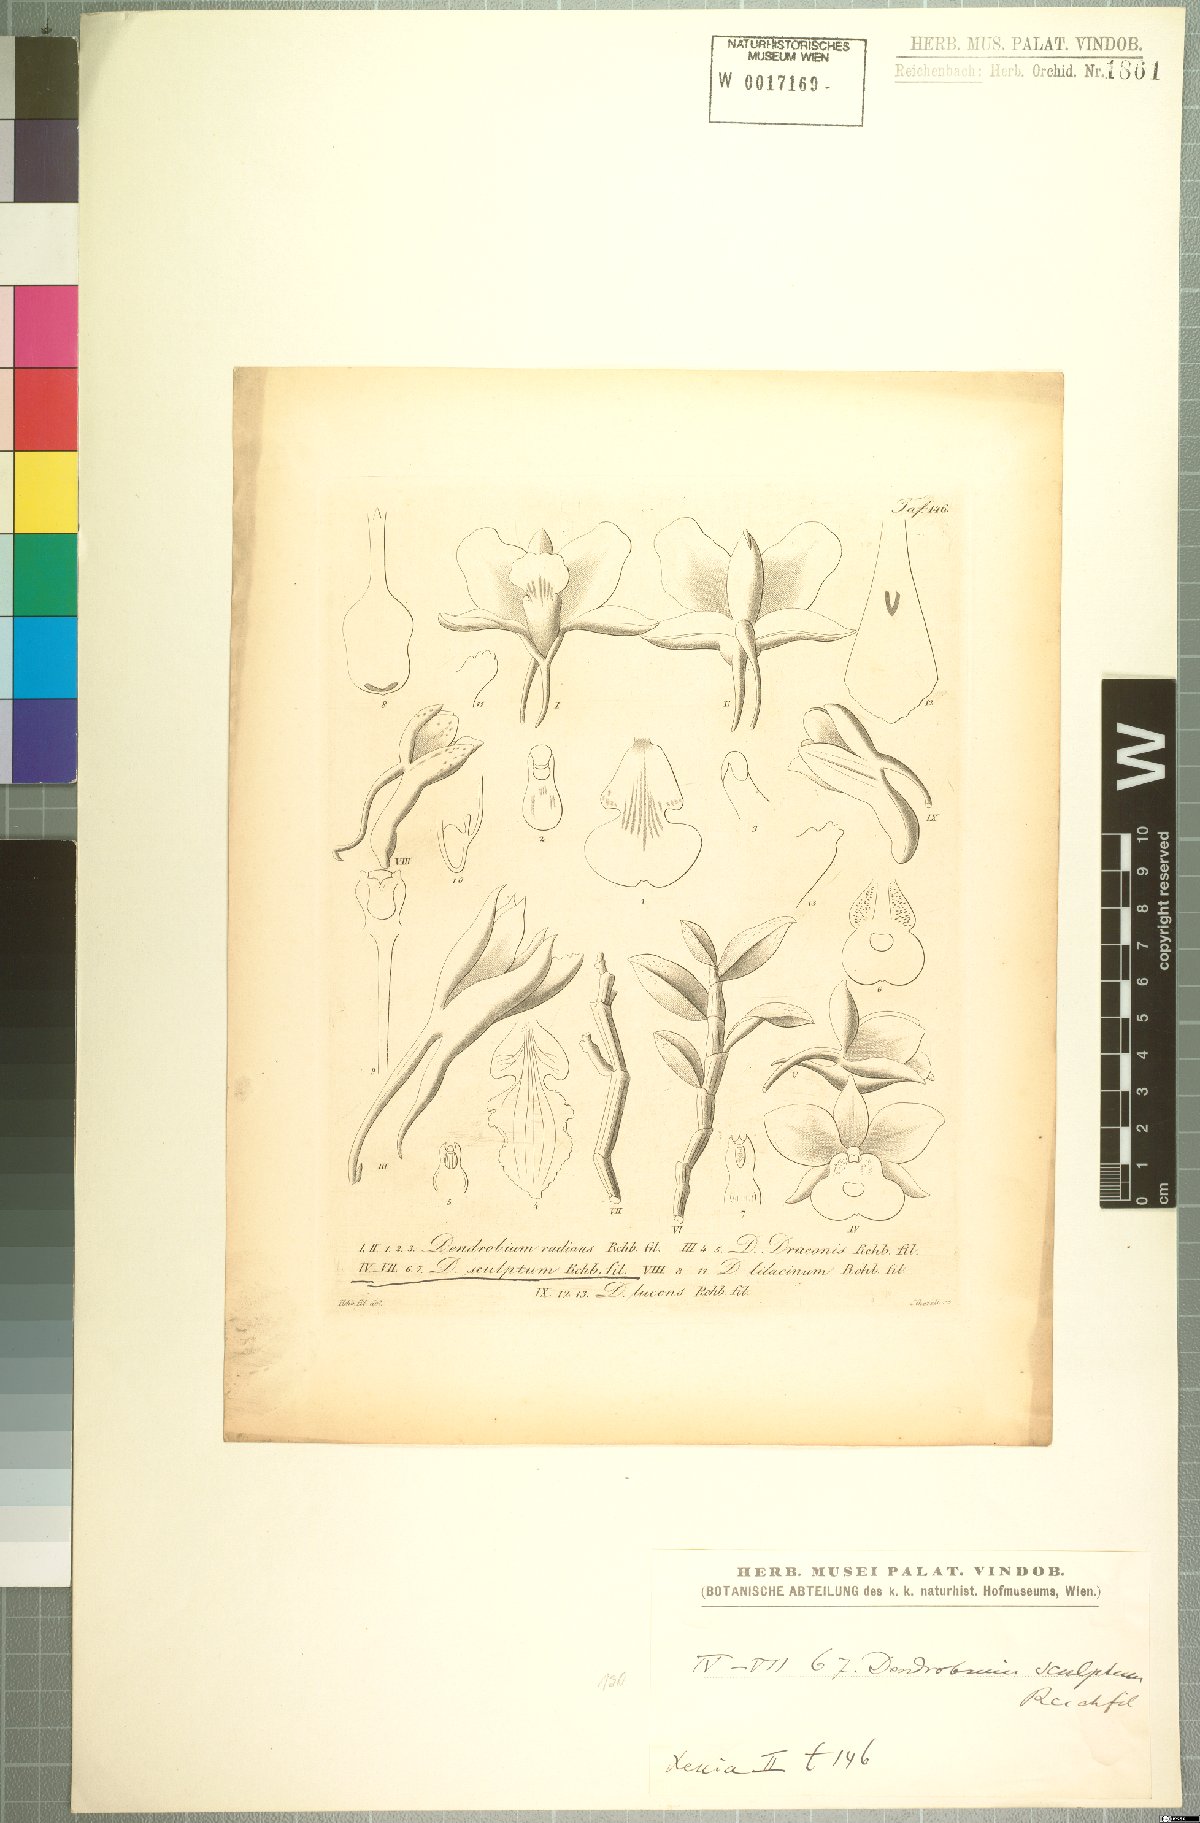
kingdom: Plantae
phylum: Tracheophyta
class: Liliopsida
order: Asparagales
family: Orchidaceae
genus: Dendrobium
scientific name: Dendrobium sculptum
